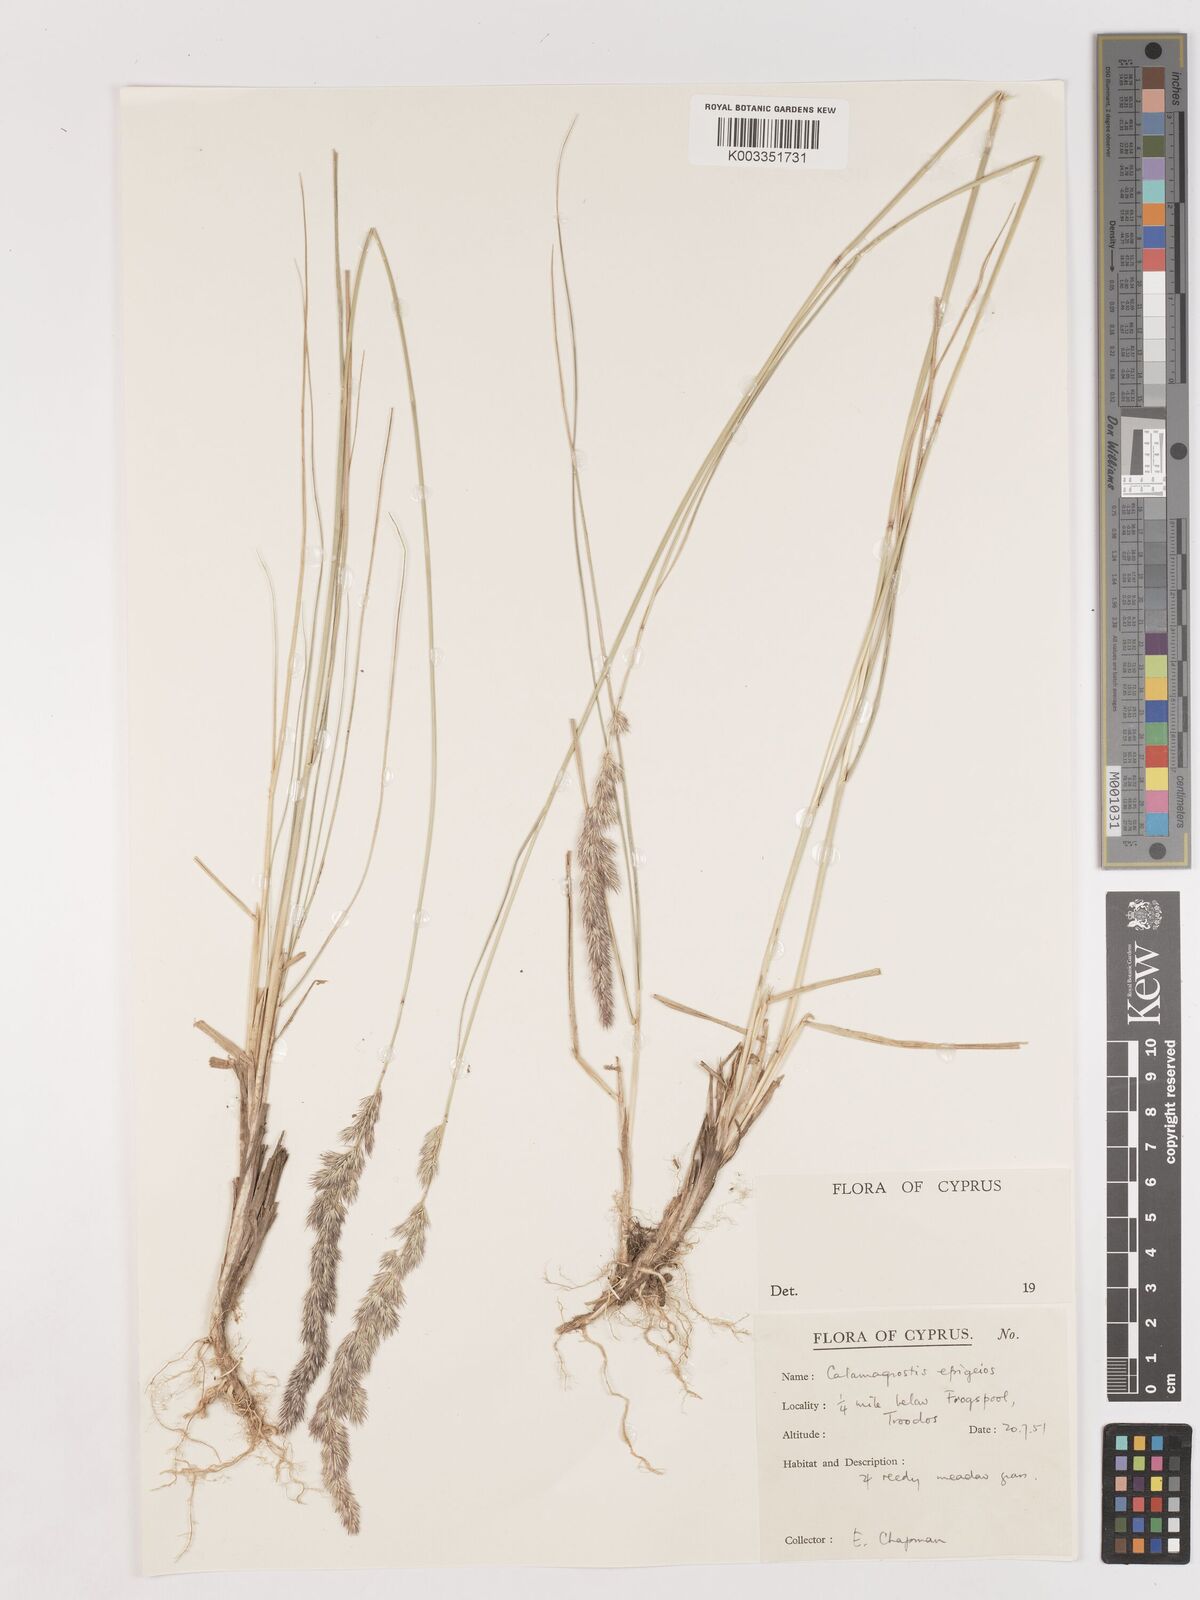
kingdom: Plantae
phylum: Tracheophyta
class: Liliopsida
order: Poales
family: Poaceae
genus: Calamagrostis
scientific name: Calamagrostis epigejos
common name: Wood small-reed
